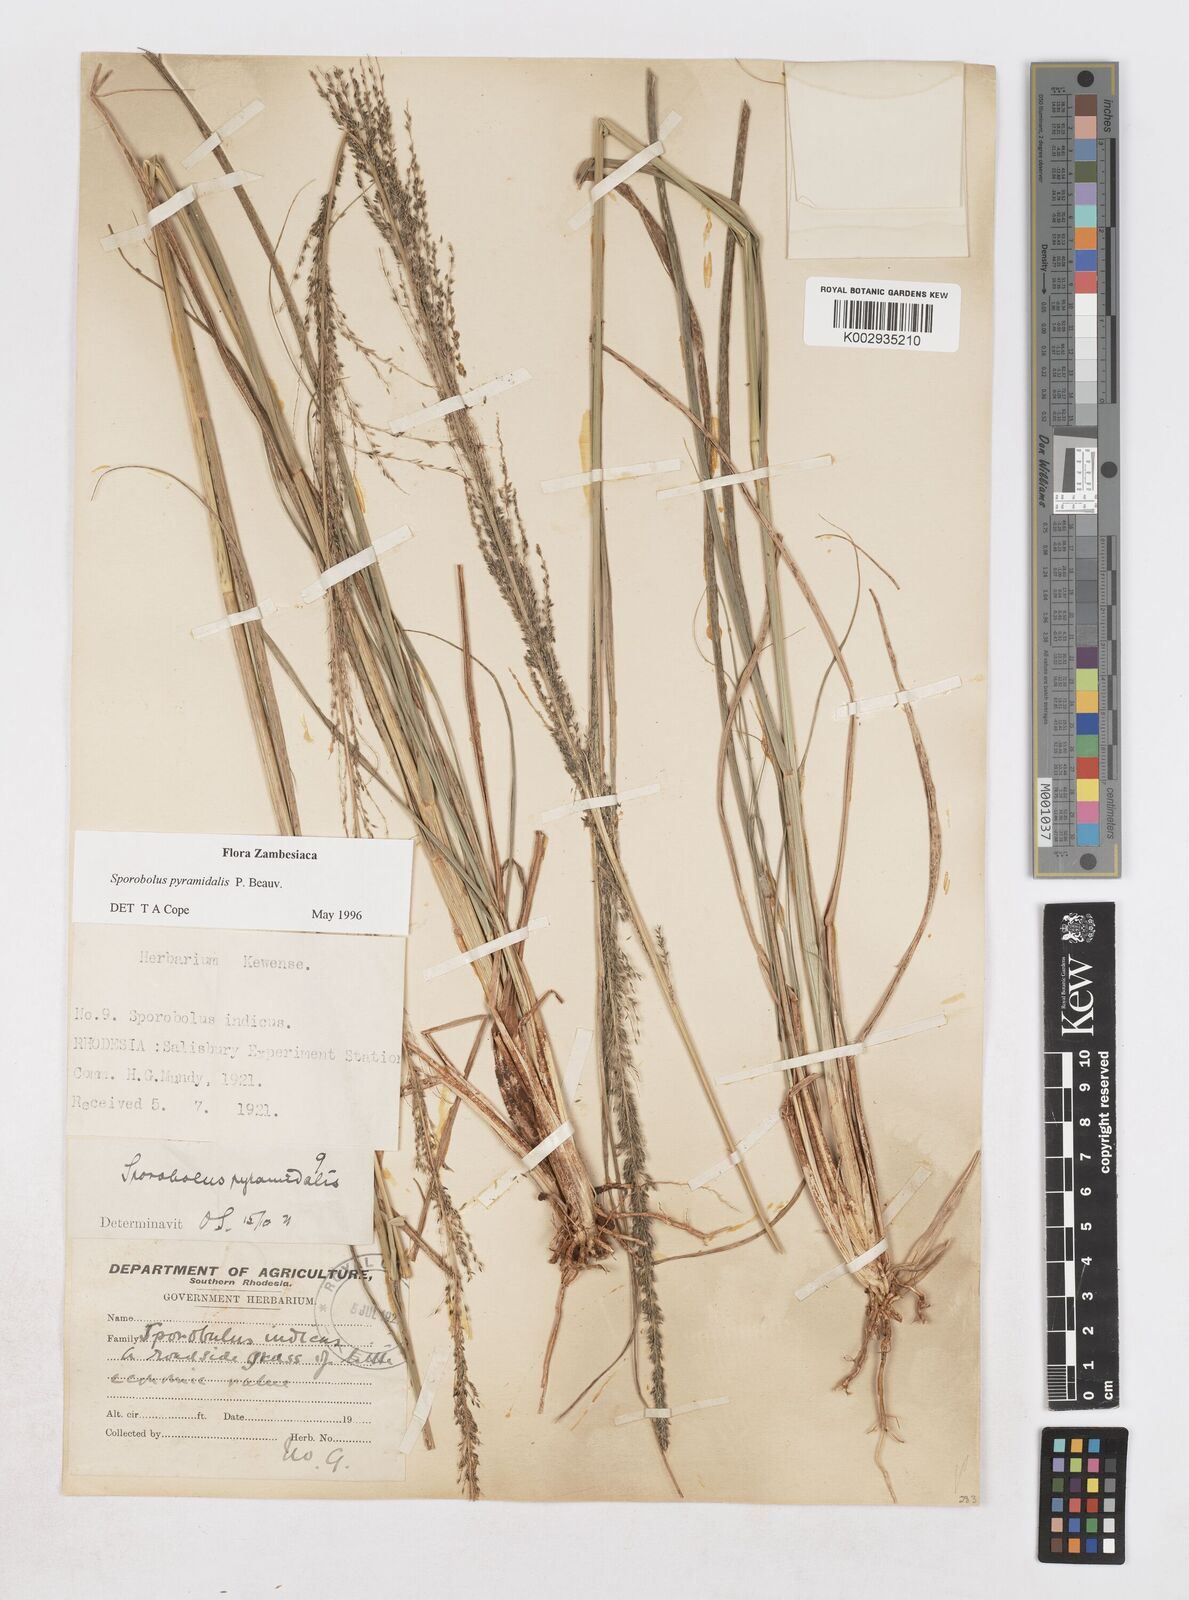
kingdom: Plantae
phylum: Tracheophyta
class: Liliopsida
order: Poales
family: Poaceae
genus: Sporobolus
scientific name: Sporobolus pyramidalis
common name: West indian dropseed
